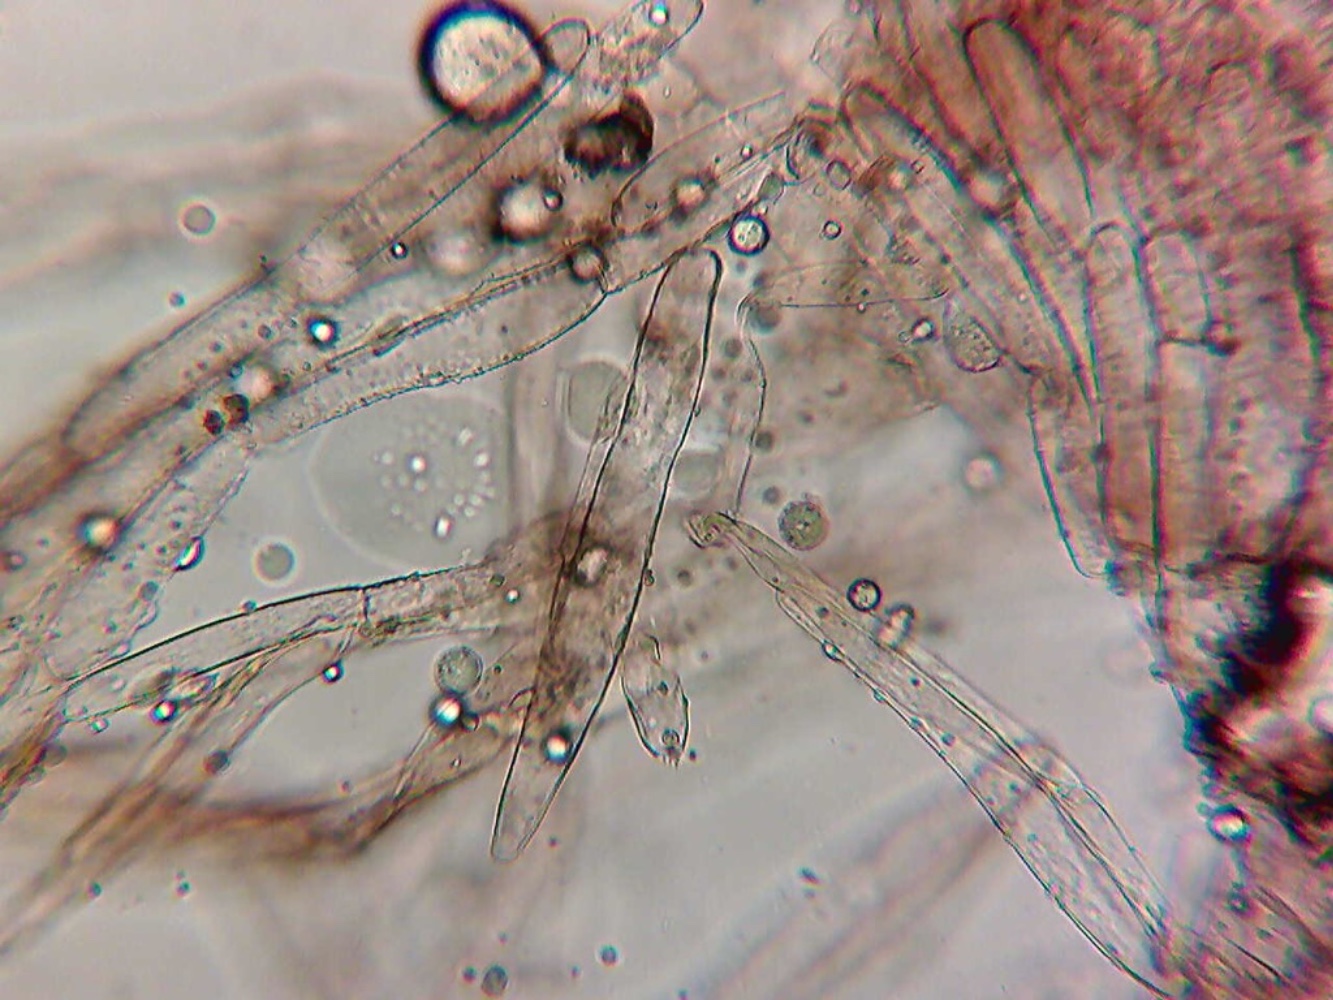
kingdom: Fungi
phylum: Basidiomycota
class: Agaricomycetes
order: Agaricales
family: Entolomataceae
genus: Entoloma
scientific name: Entoloma dysthales
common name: gråhåret rødblad
